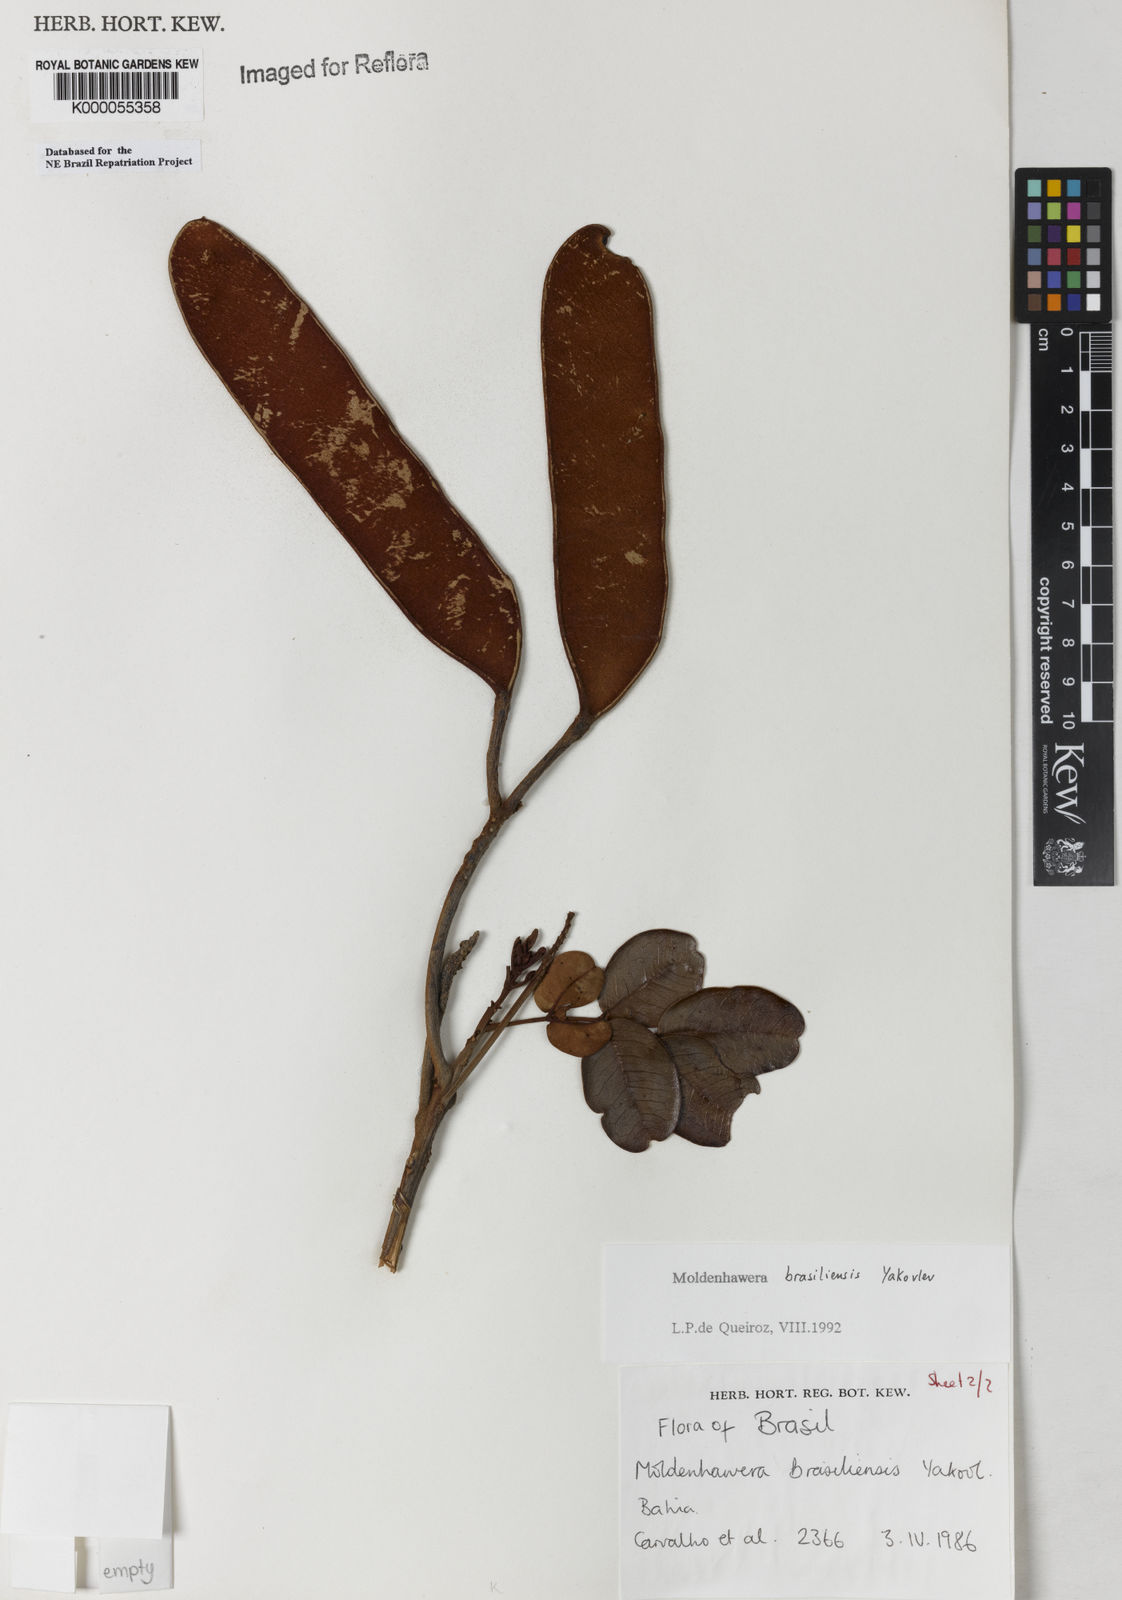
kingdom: Plantae
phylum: Tracheophyta
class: Magnoliopsida
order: Fabales
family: Fabaceae
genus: Moldenhawera
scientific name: Moldenhawera brasiliensis
